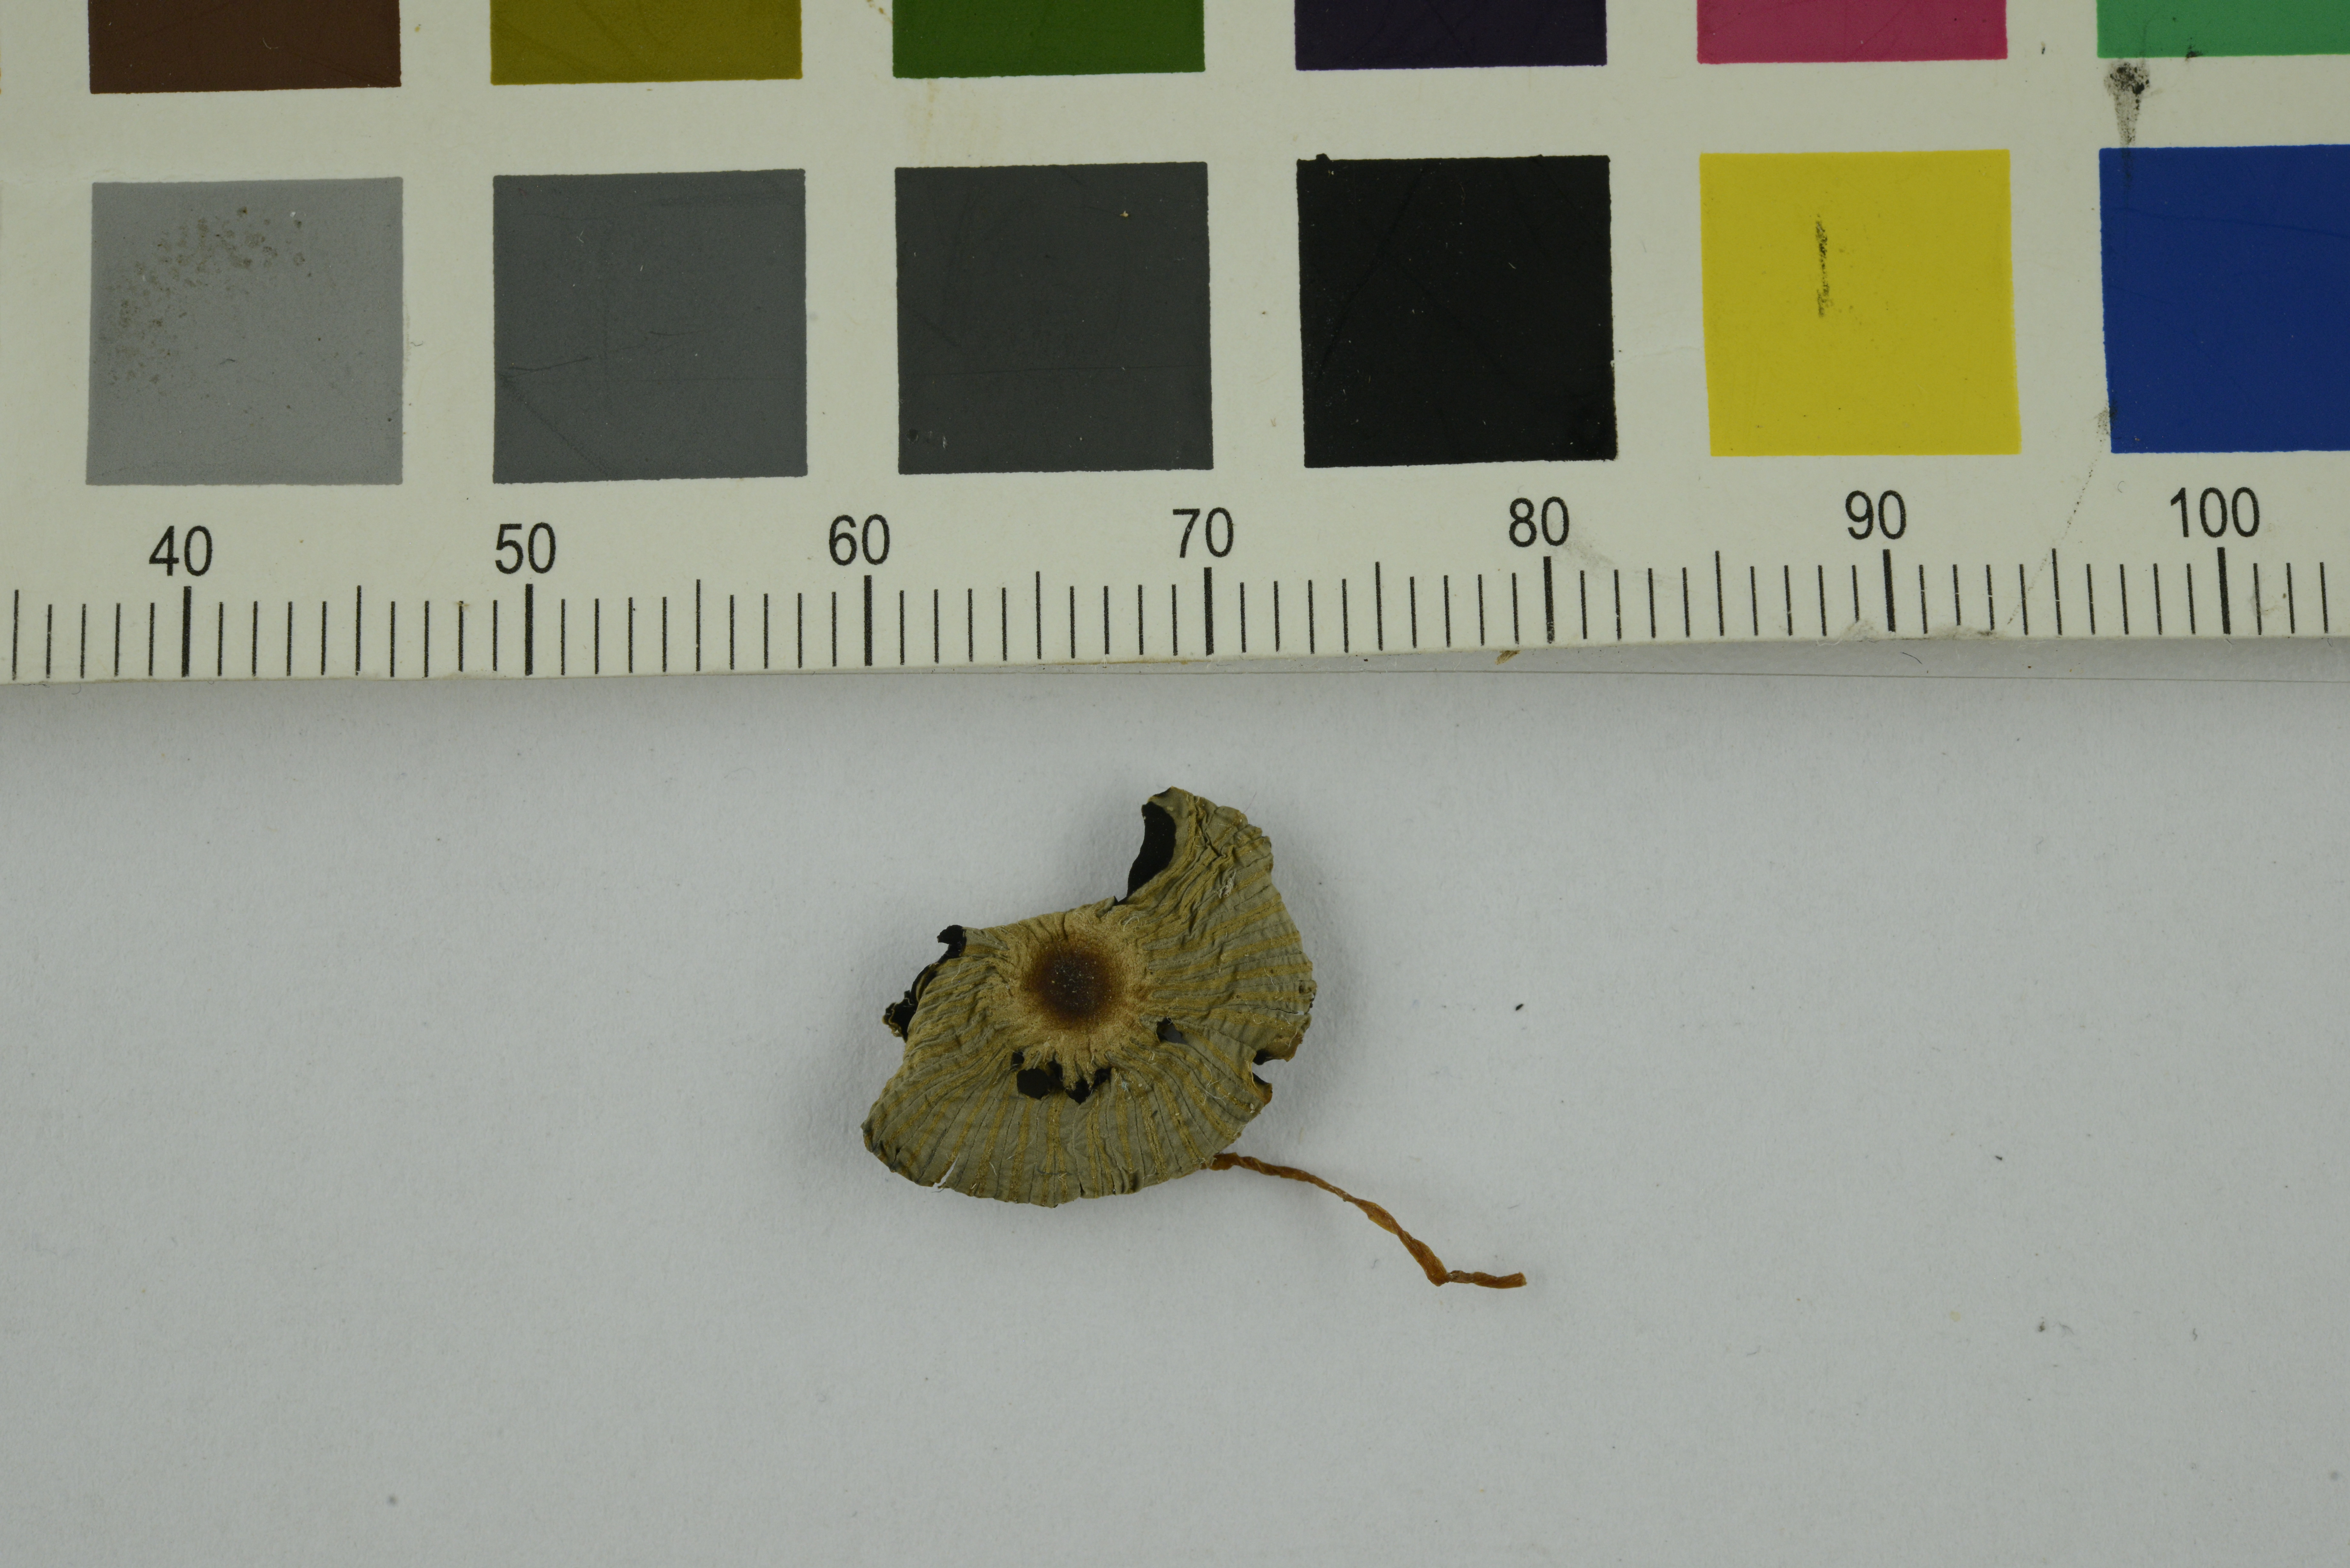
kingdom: Fungi
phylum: Basidiomycota
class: Agaricomycetes
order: Agaricales
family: Psathyrellaceae
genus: Parasola
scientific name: Parasola leiocephala
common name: Bald inkcap
